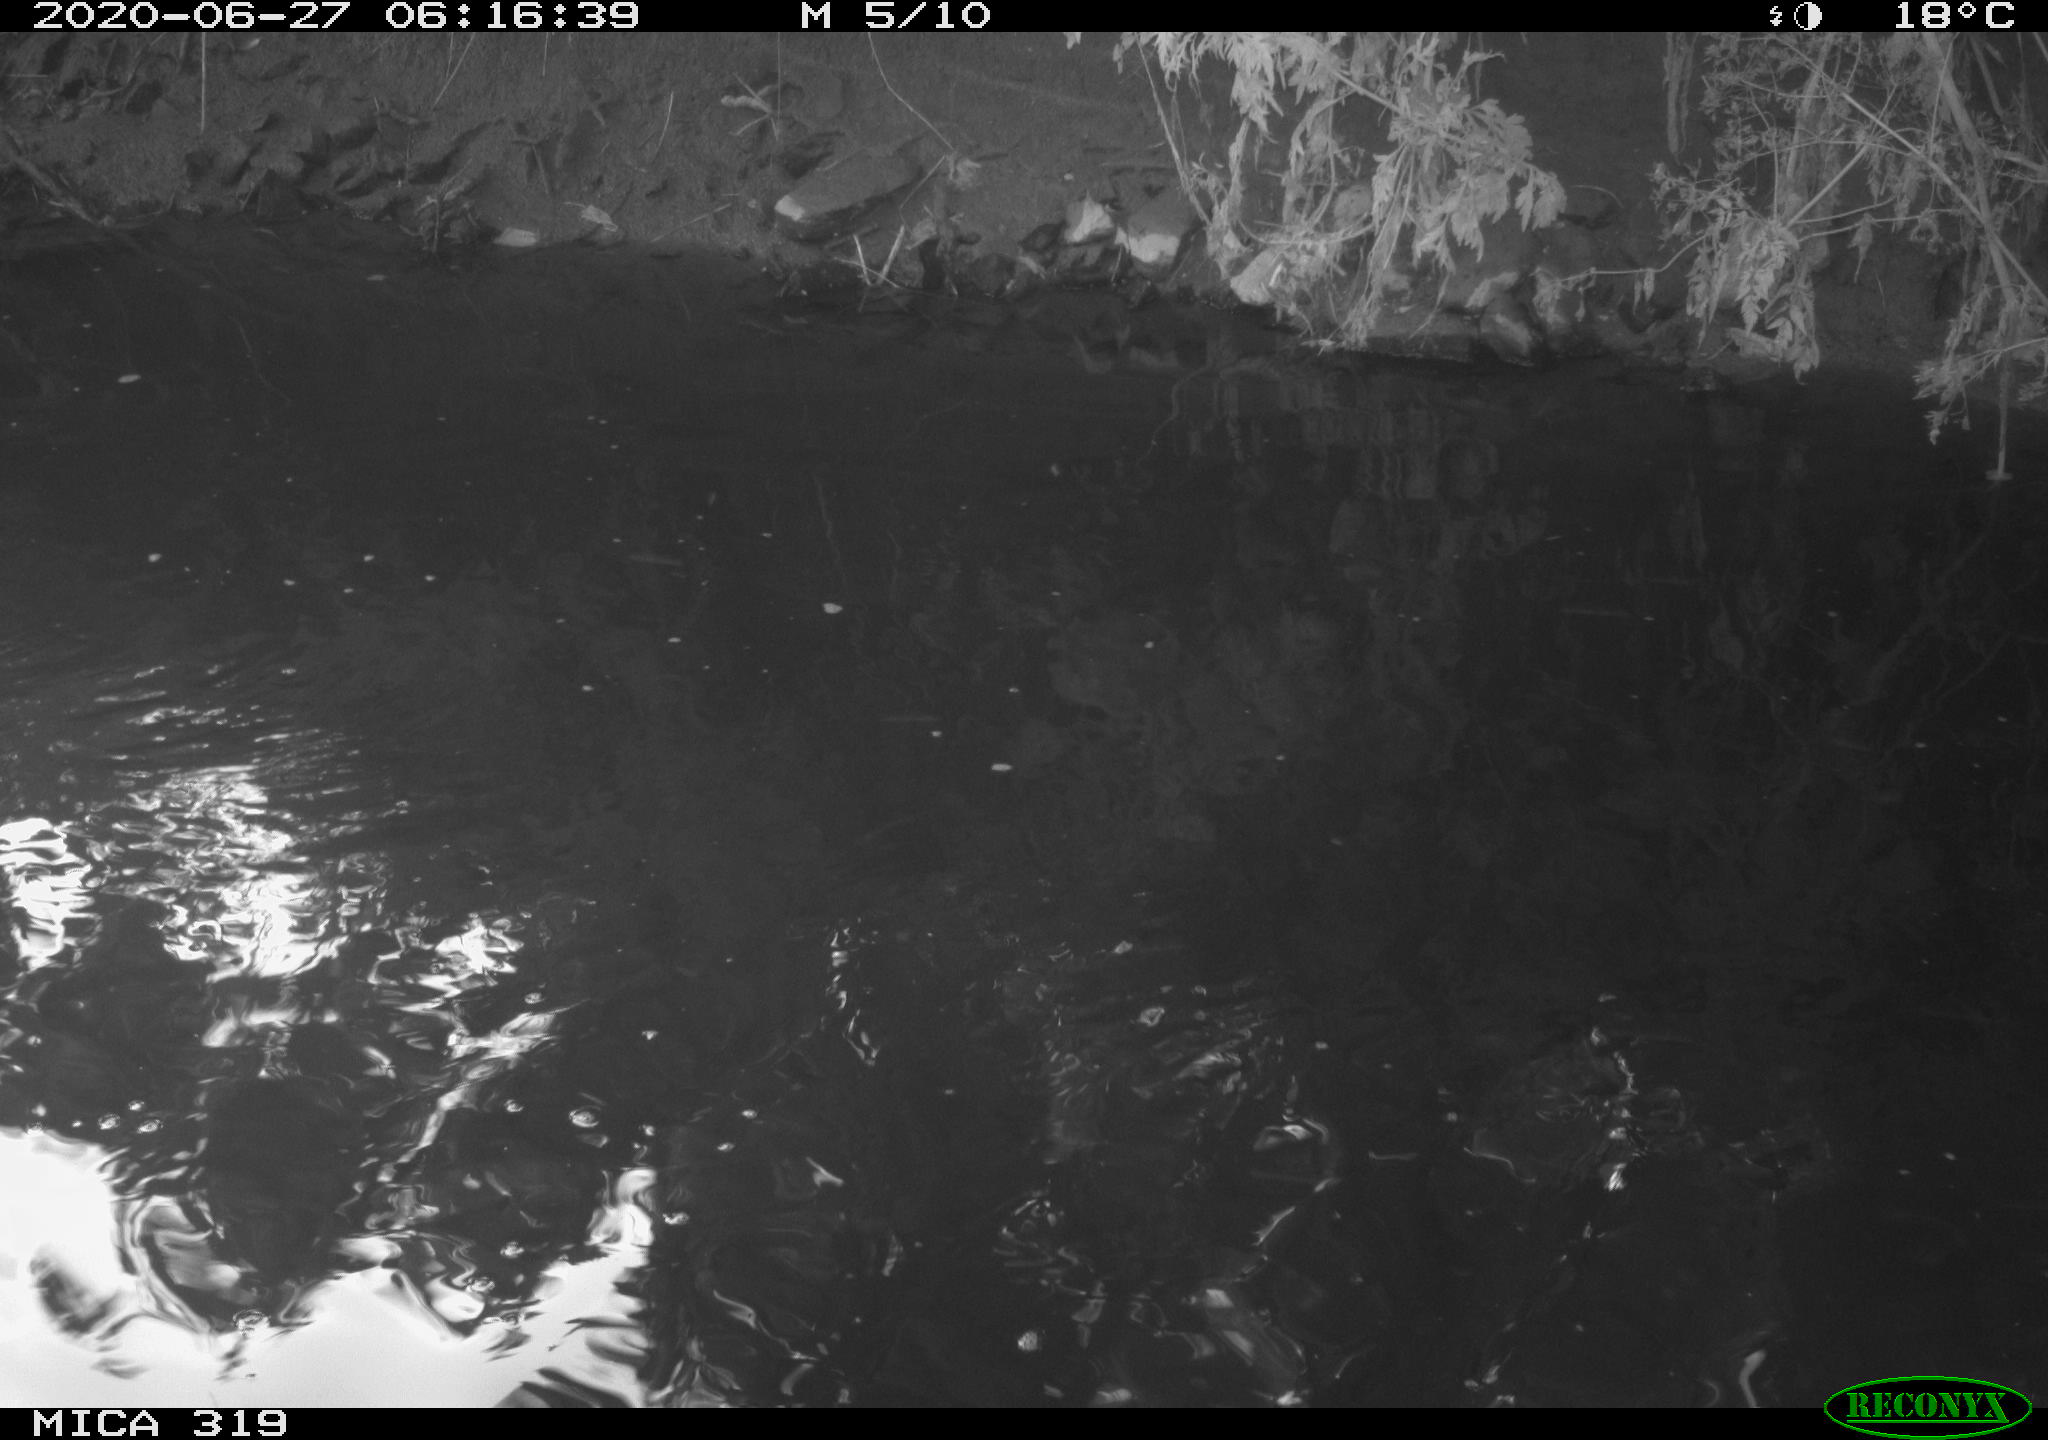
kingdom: Animalia
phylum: Chordata
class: Aves
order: Anseriformes
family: Anatidae
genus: Anas
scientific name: Anas platyrhynchos
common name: Mallard
